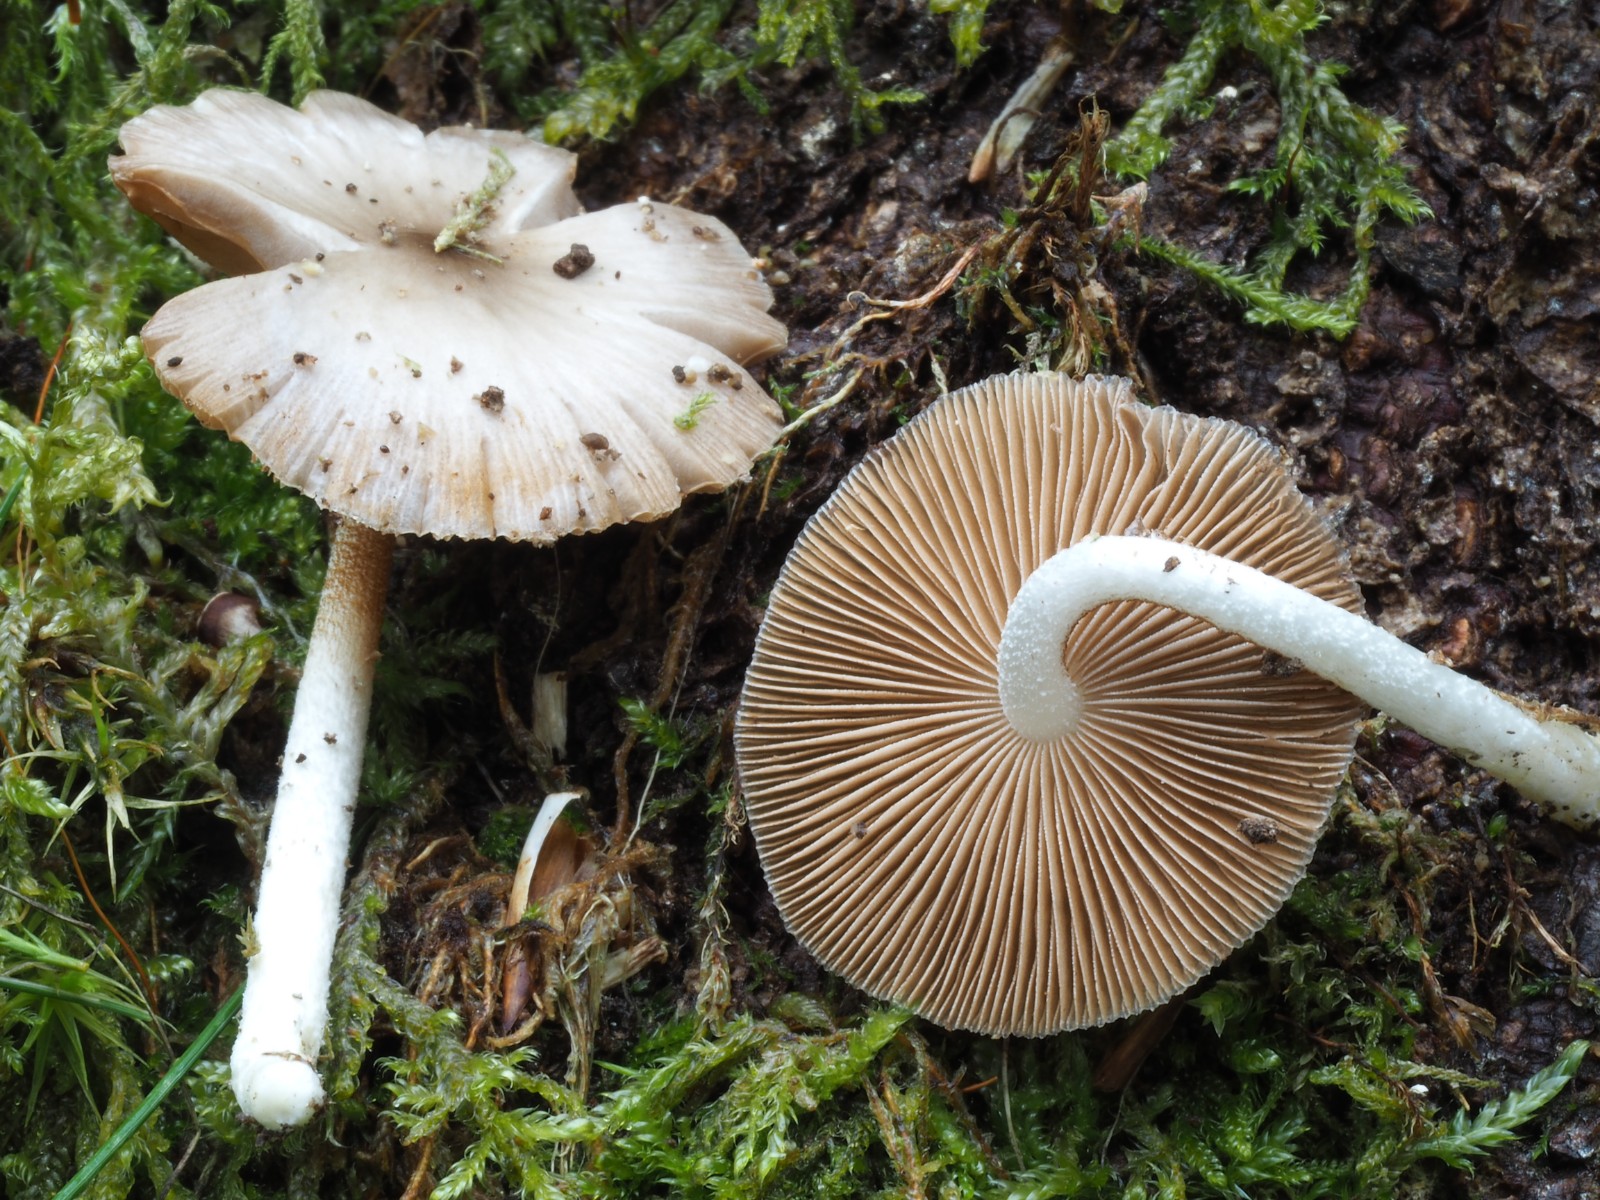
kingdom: Fungi
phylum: Basidiomycota
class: Agaricomycetes
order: Agaricales
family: Bolbitiaceae
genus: Bolbitius
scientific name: Bolbitius reticulatus
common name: netåret gulhat
